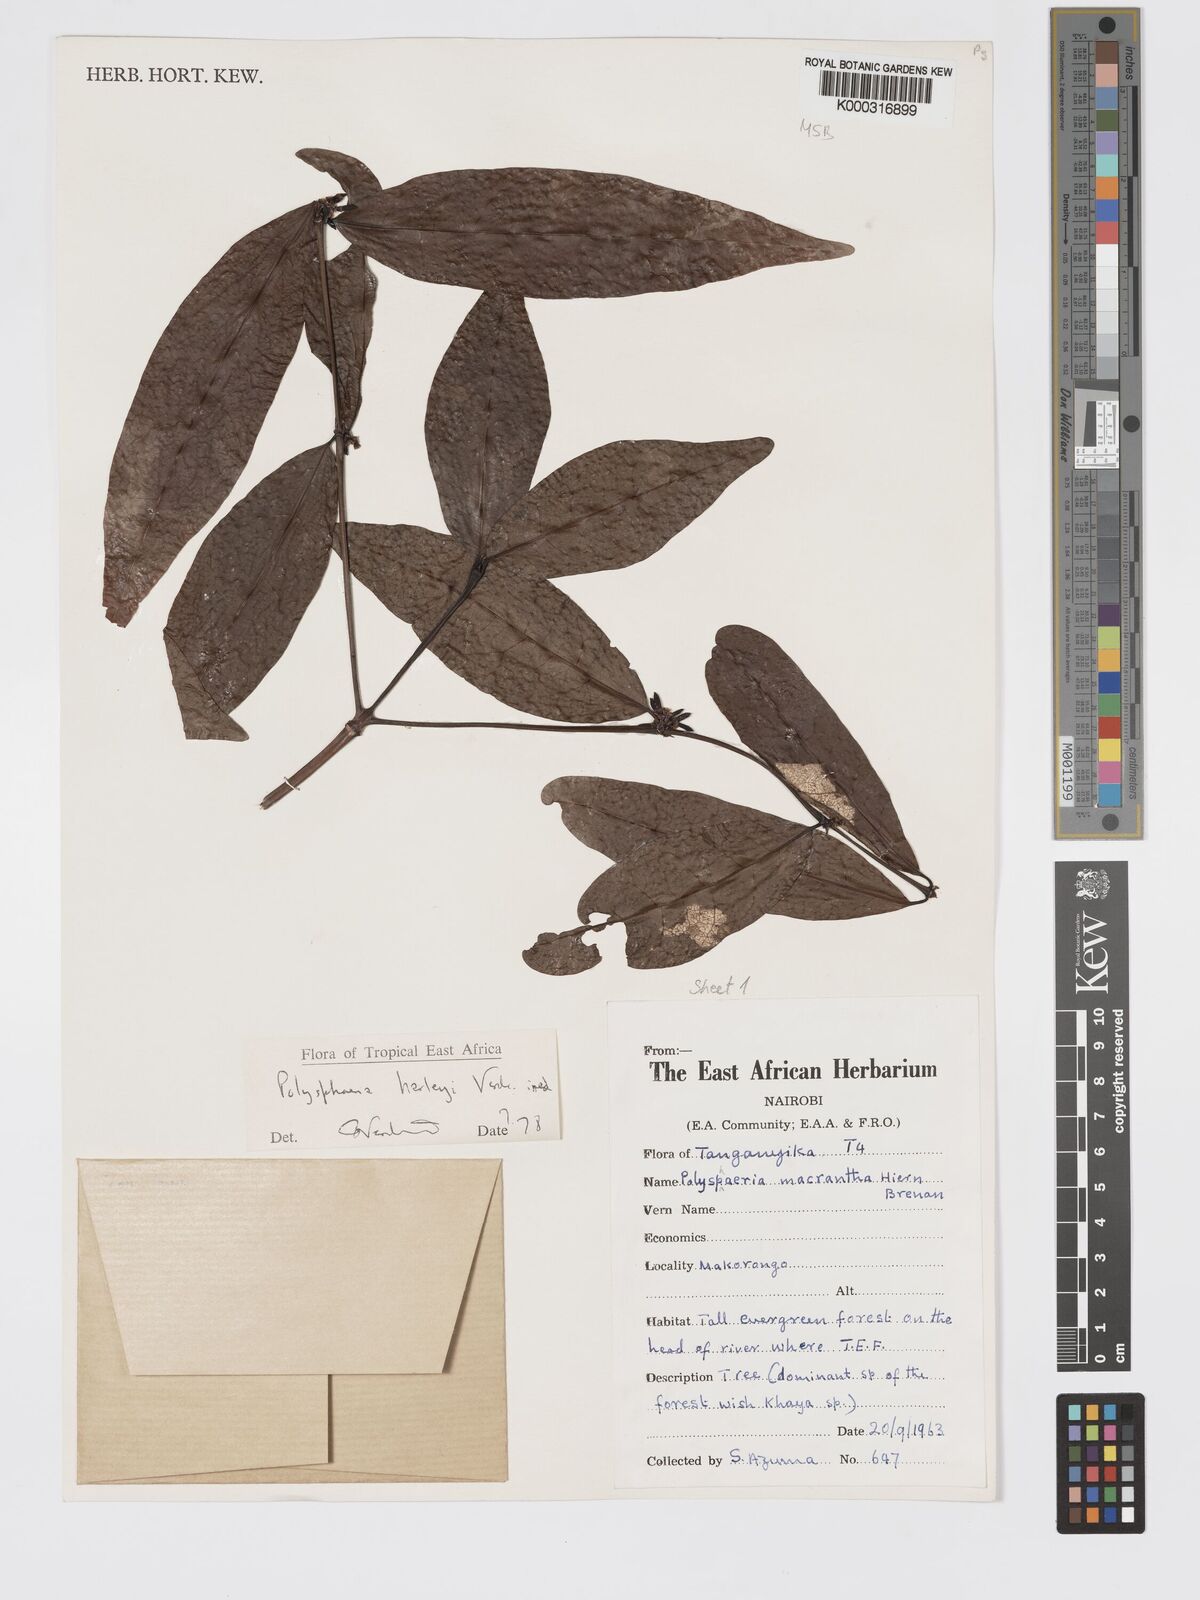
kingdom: Plantae
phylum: Tracheophyta
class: Magnoliopsida
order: Gentianales
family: Rubiaceae
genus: Polysphaeria
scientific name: Polysphaeria lanceolata
